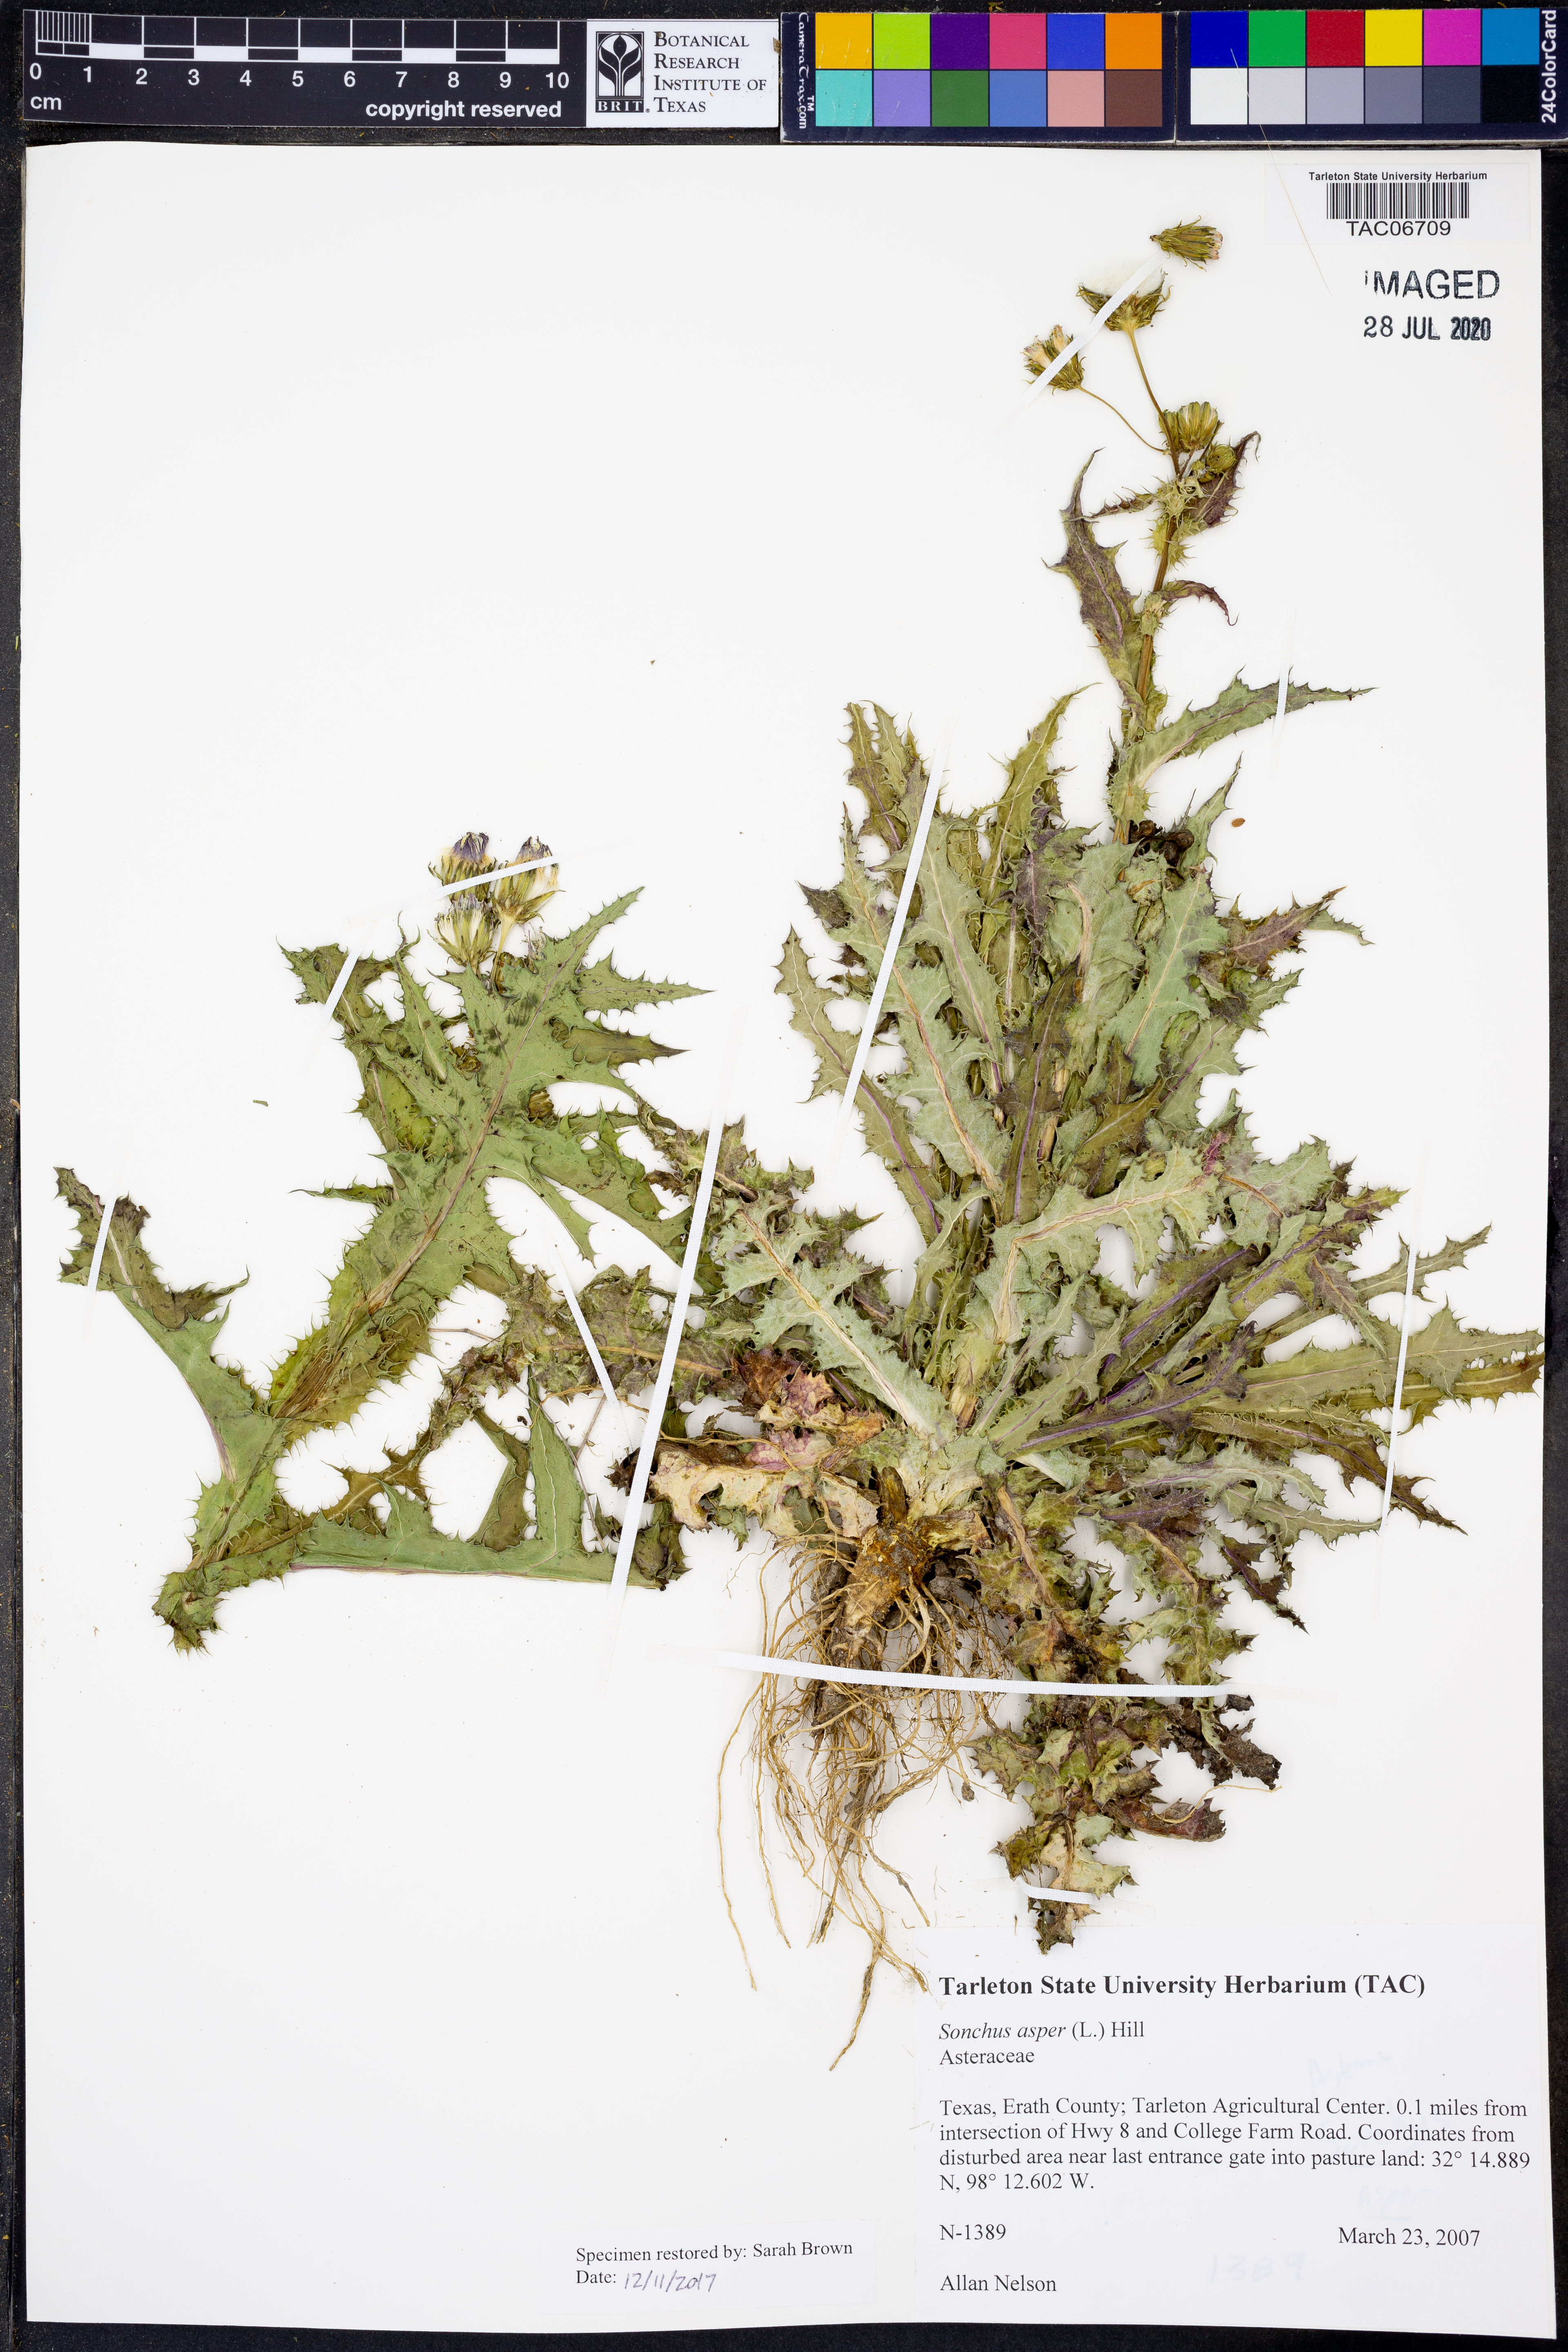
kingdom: Plantae
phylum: Tracheophyta
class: Magnoliopsida
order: Asterales
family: Asteraceae
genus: Sonchus
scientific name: Sonchus asper
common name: Prickly sow-thistle
